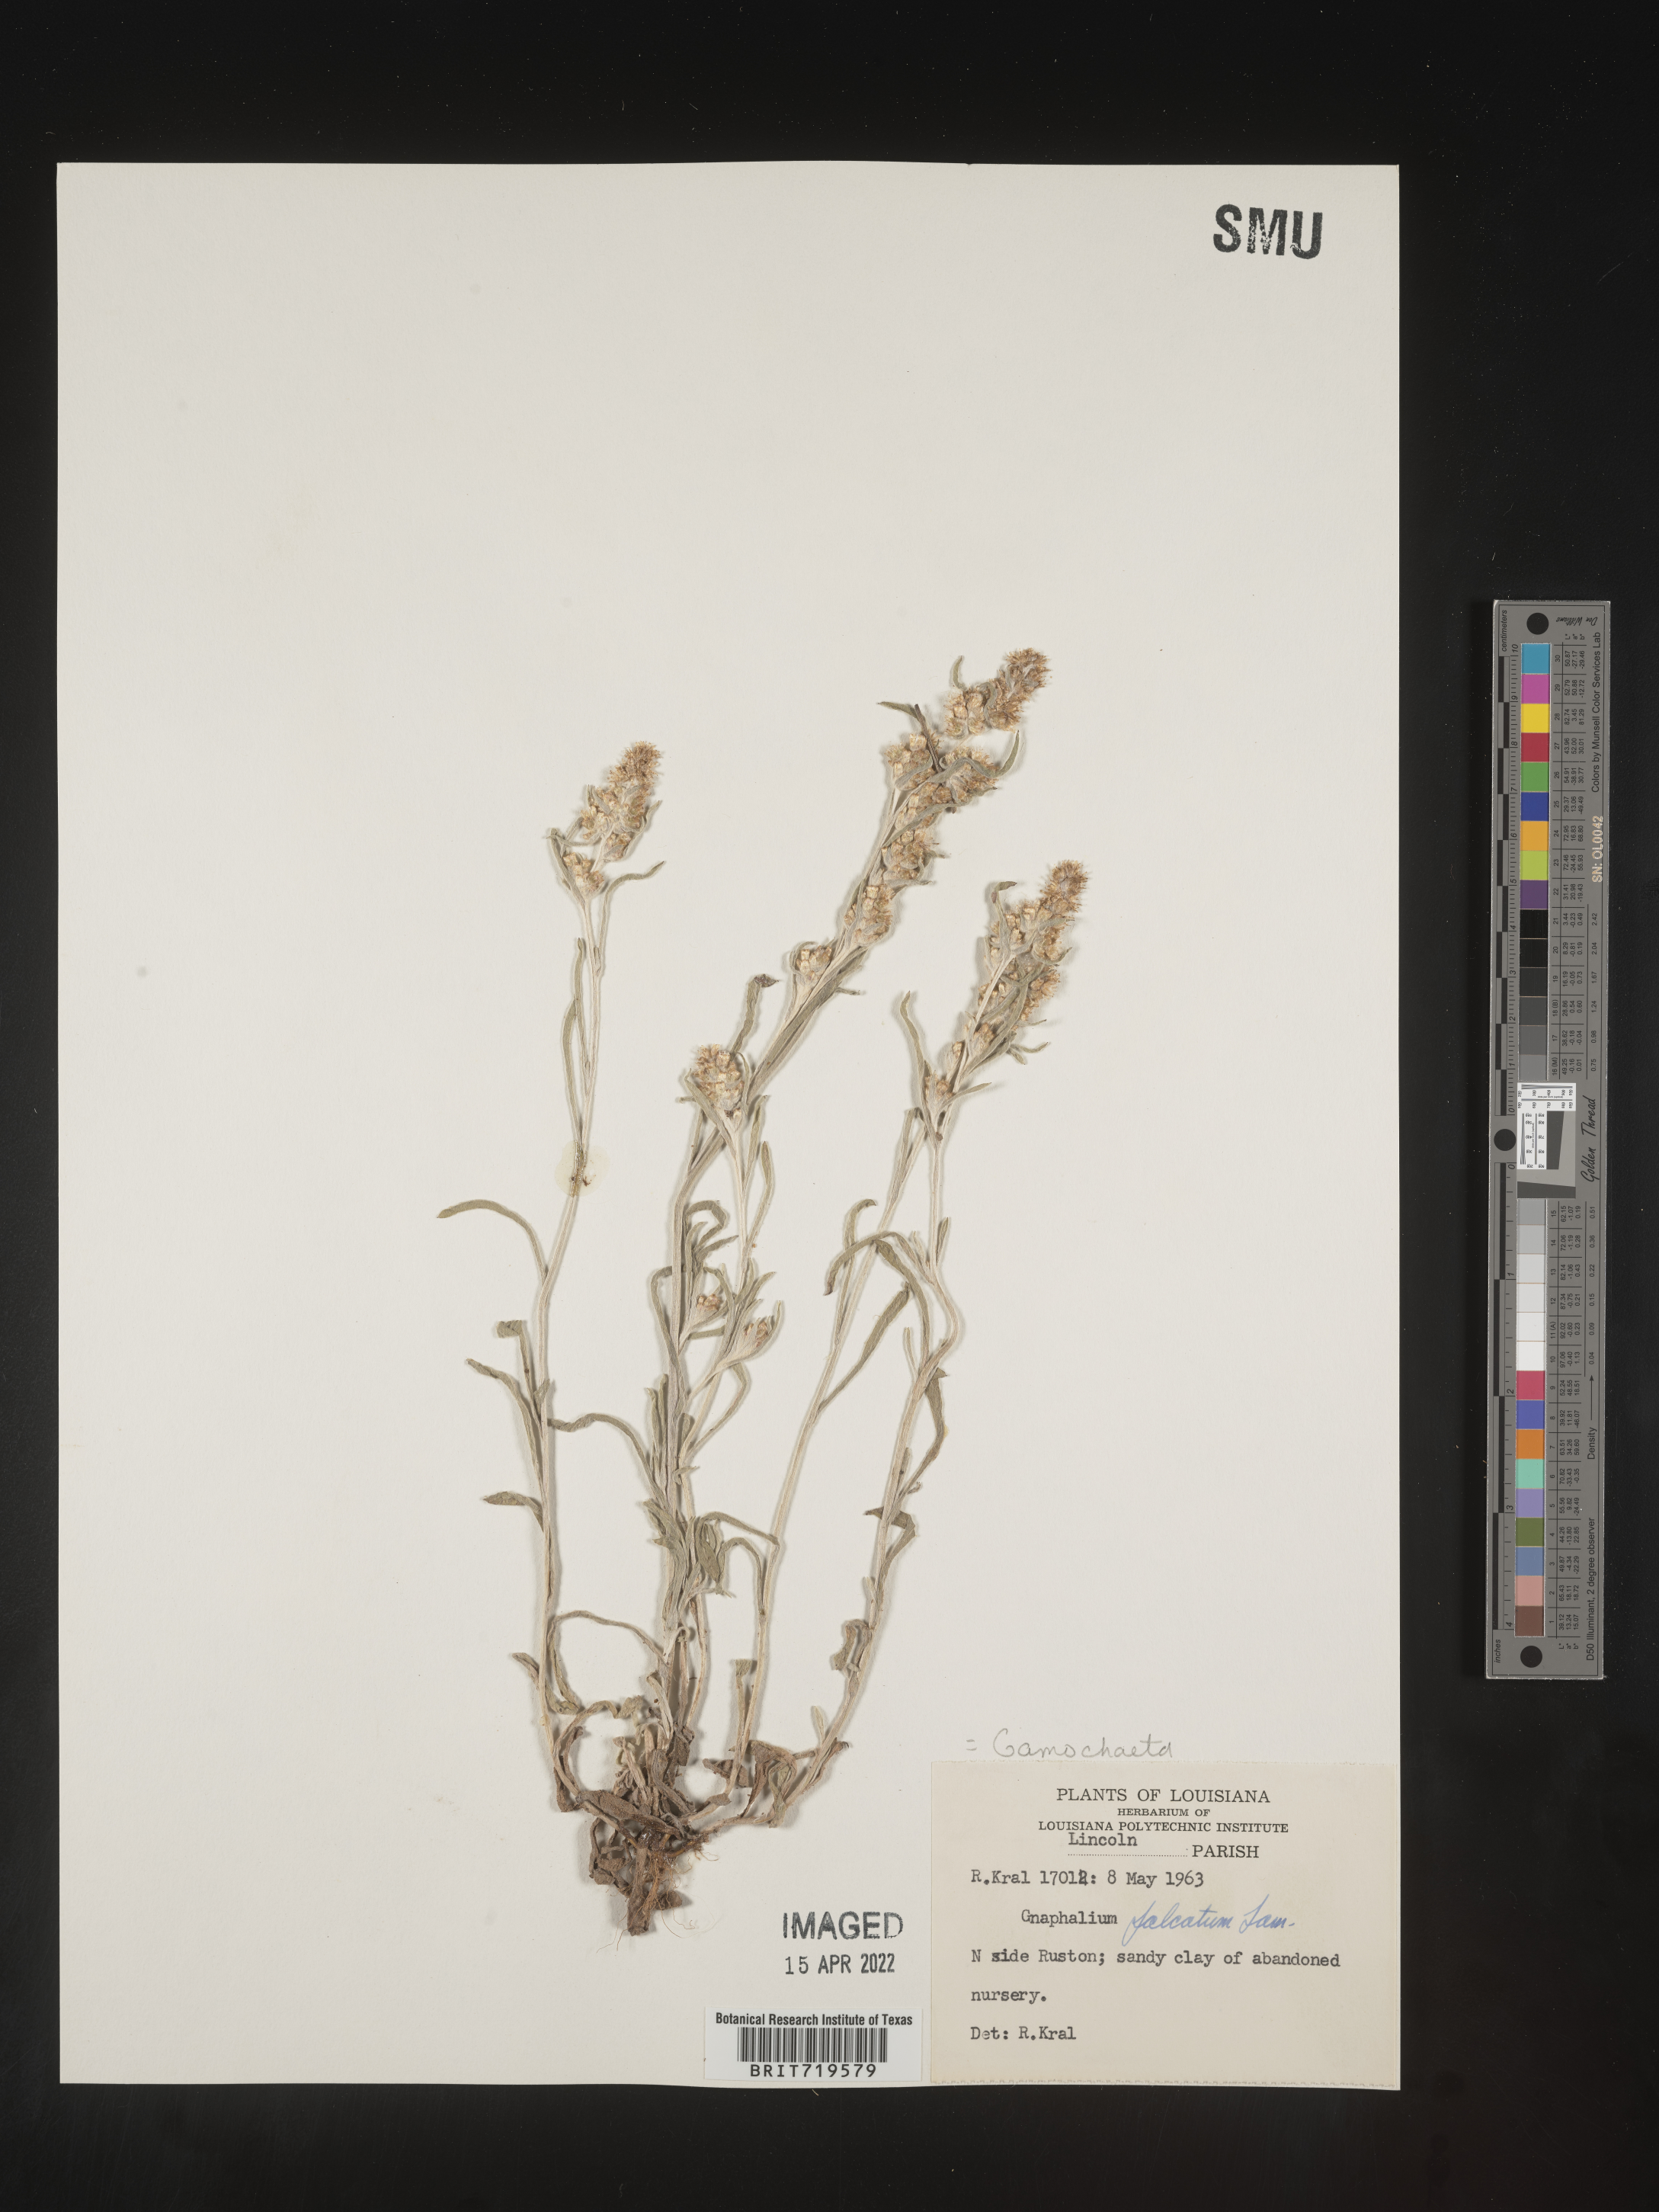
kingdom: Plantae
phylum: Tracheophyta
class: Magnoliopsida
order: Asterales
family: Asteraceae
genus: Gamochaeta
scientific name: Gamochaeta antillana
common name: Delicate everlasting
